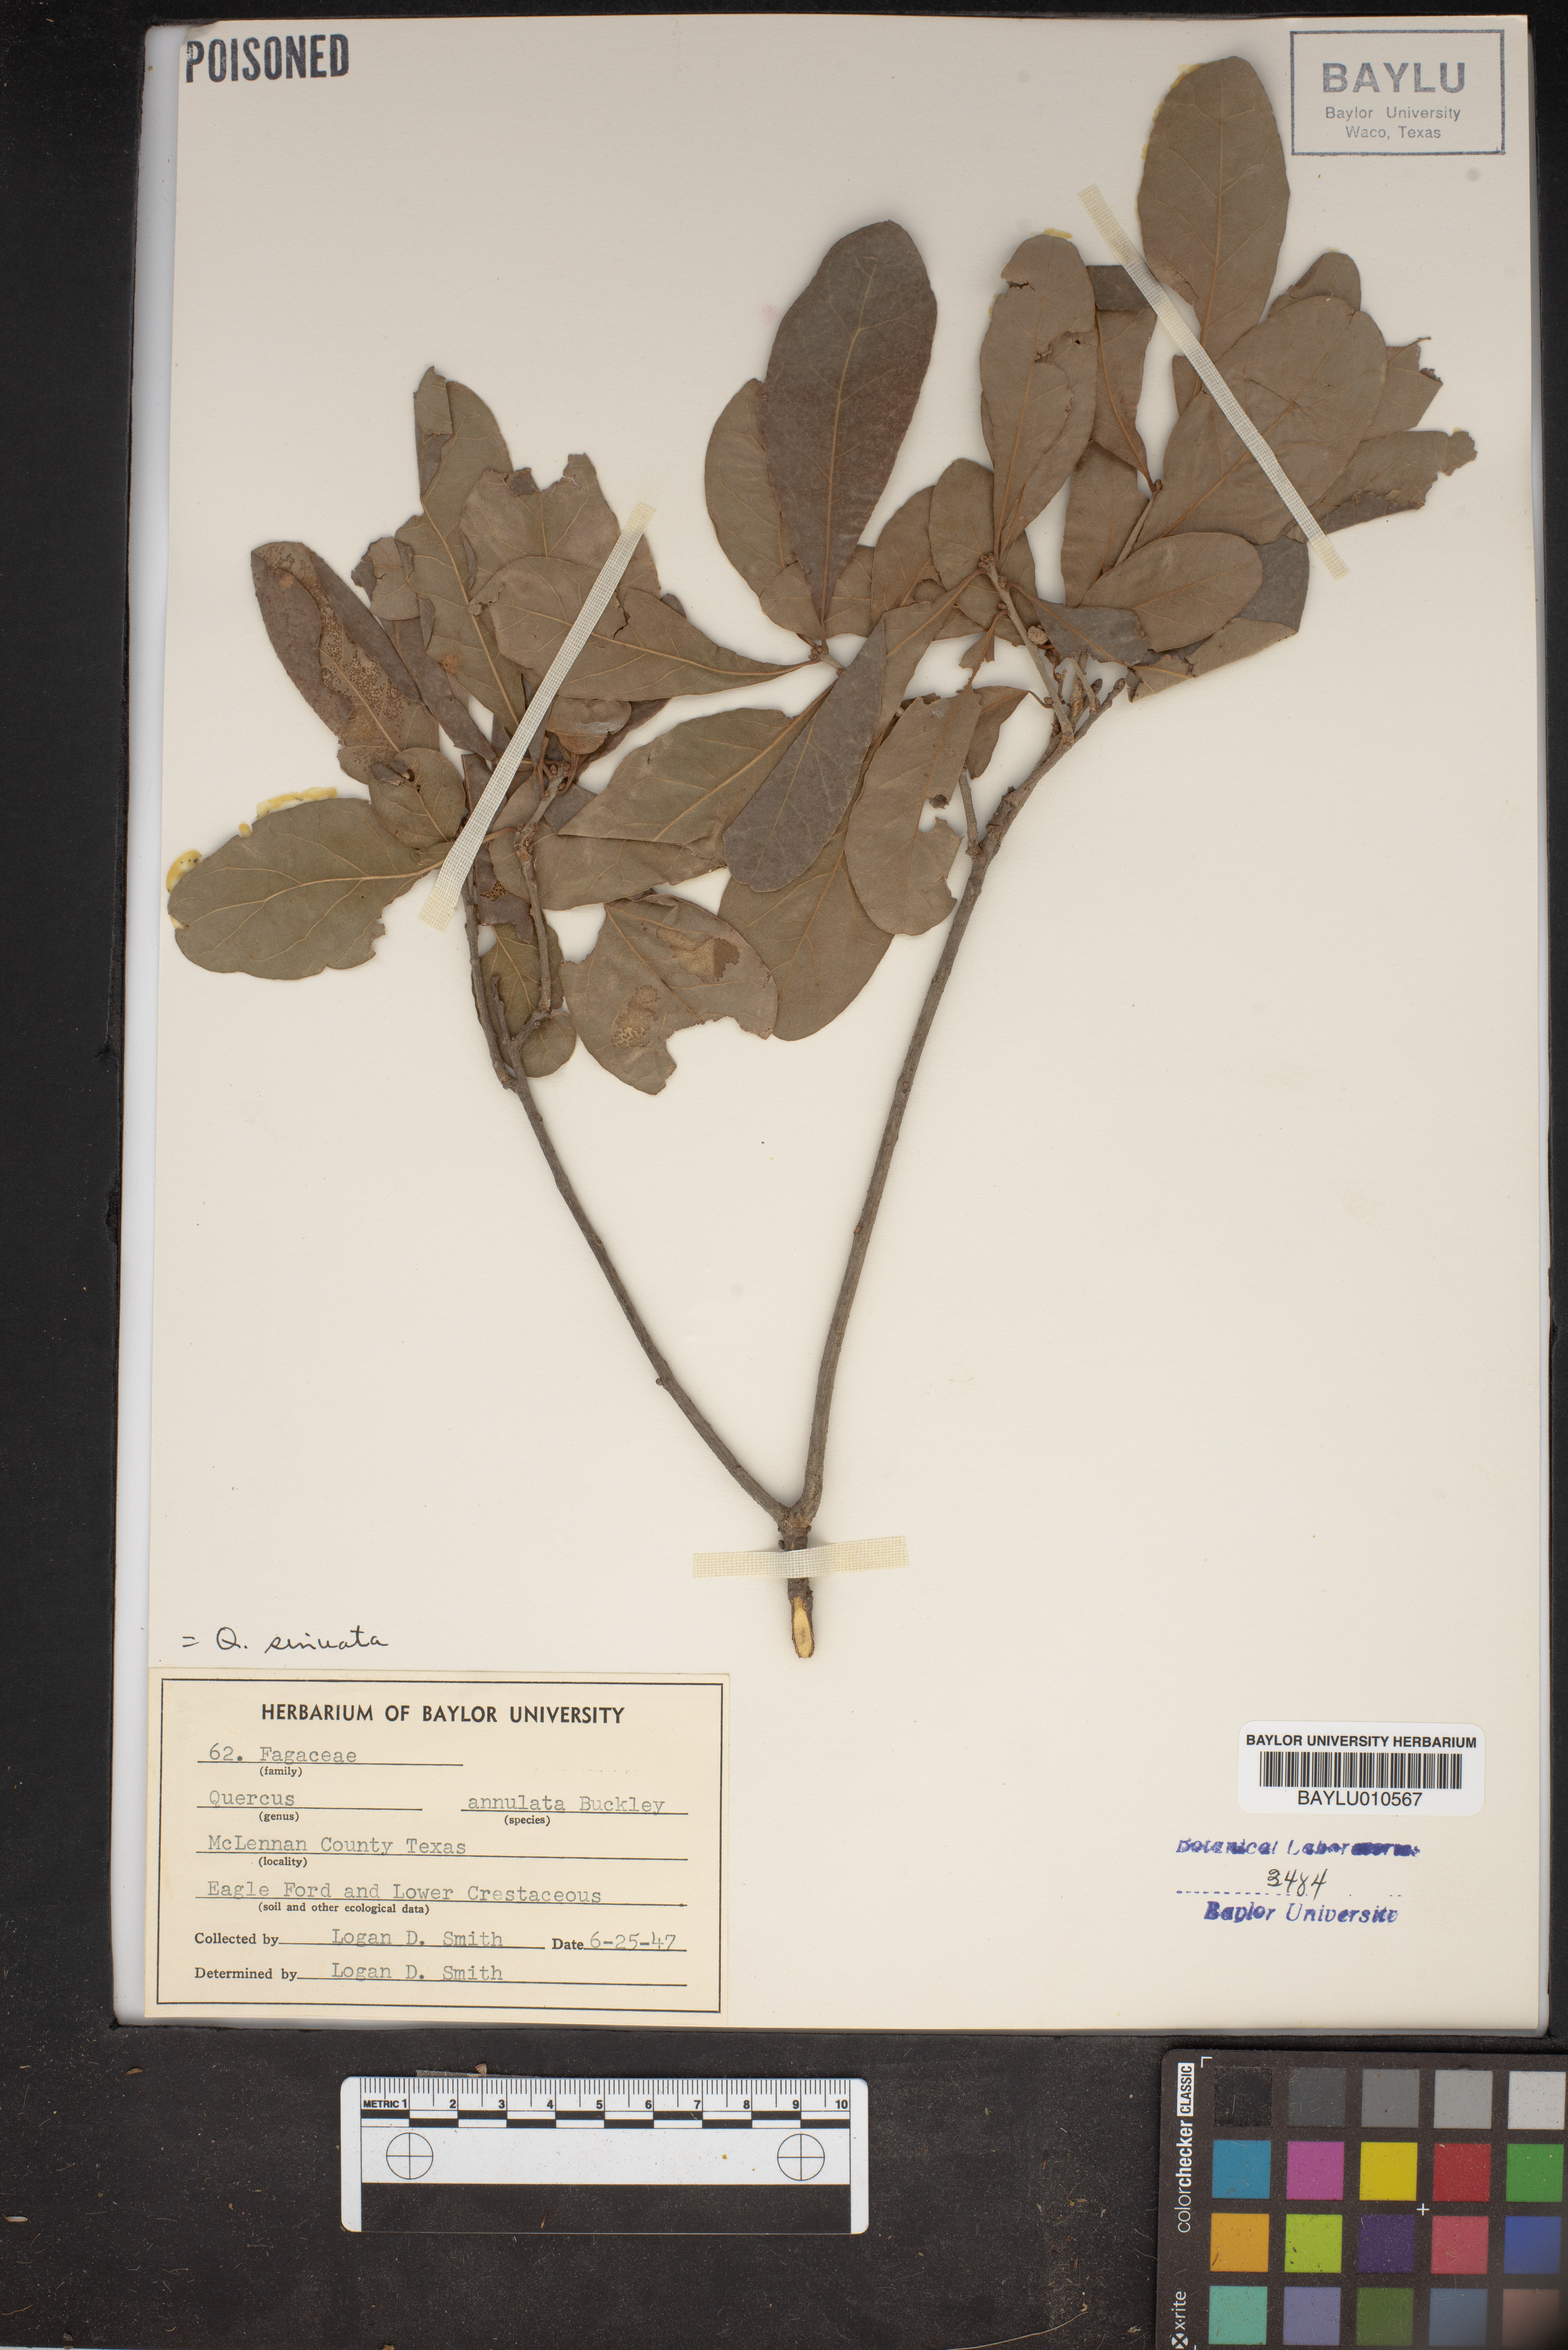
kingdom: Plantae
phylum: Tracheophyta
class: Magnoliopsida
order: Fagales
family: Fagaceae
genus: Quercus
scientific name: Quercus sinuata
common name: Durand oak
